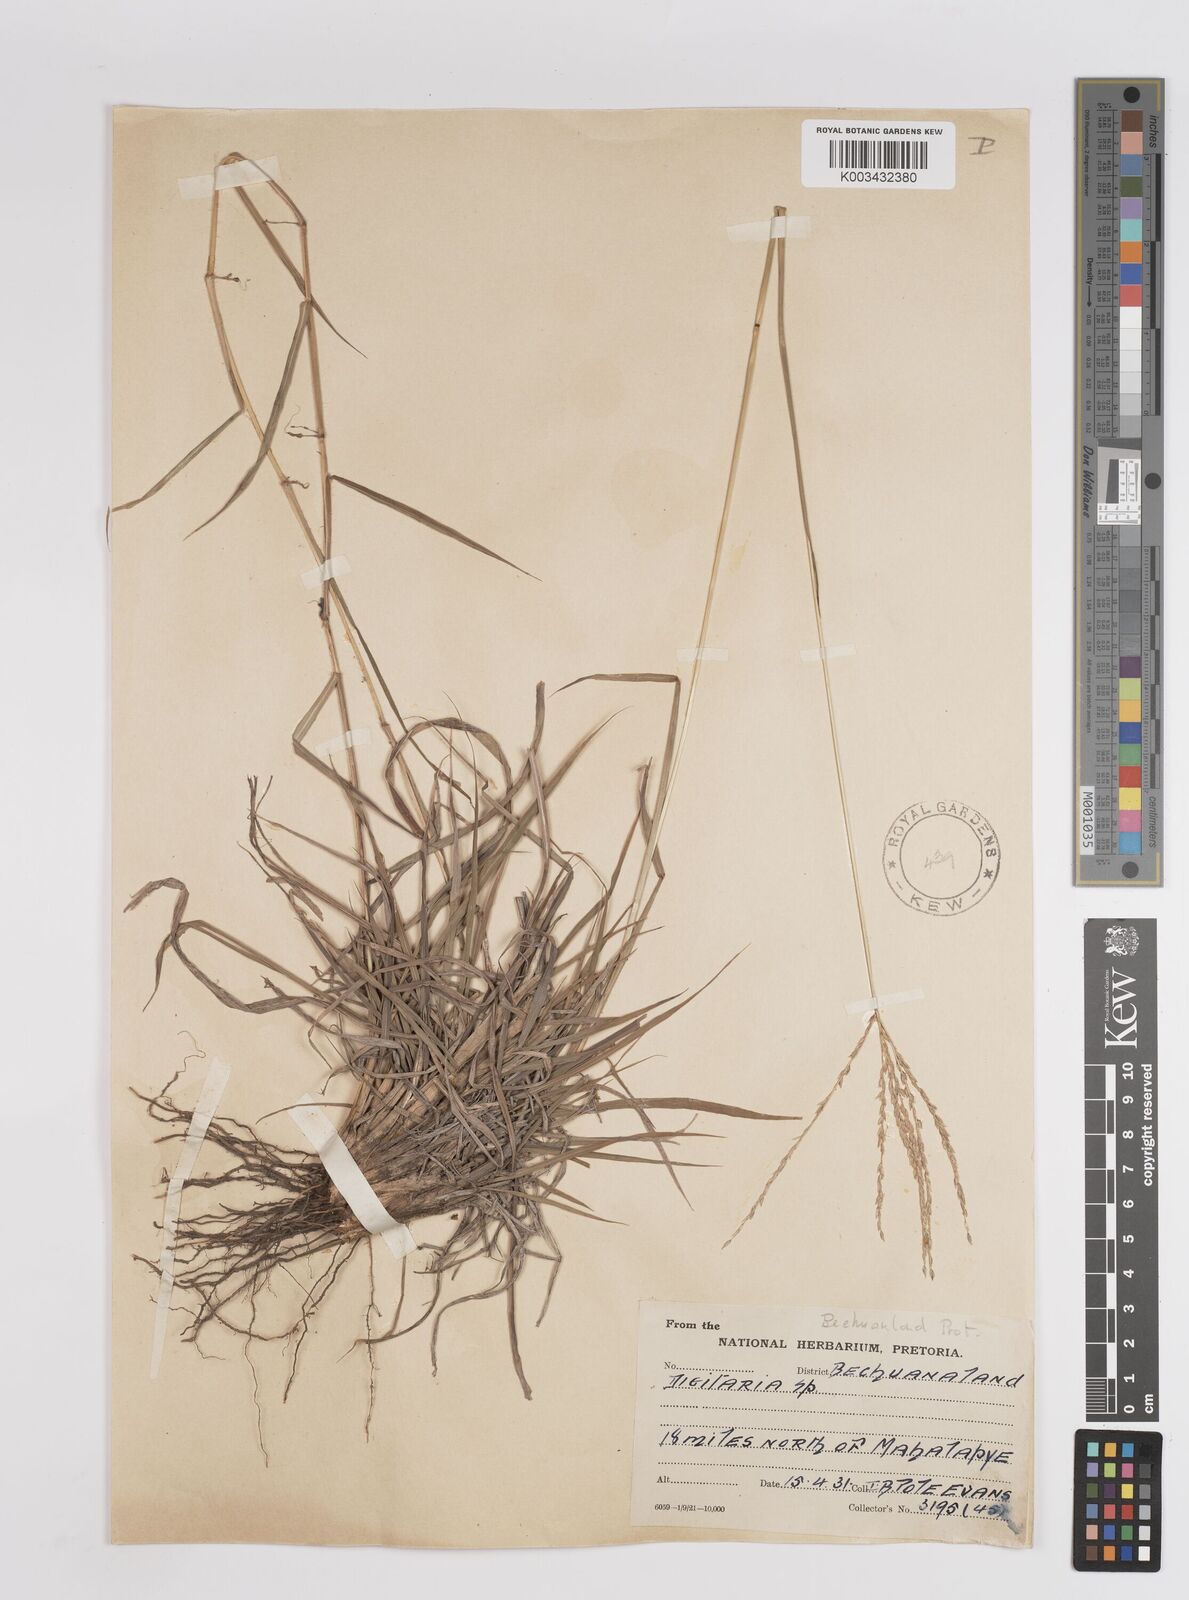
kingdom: Plantae
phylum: Tracheophyta
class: Liliopsida
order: Poales
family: Poaceae
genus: Digitaria
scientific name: Digitaria eriantha
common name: Digitgrass
